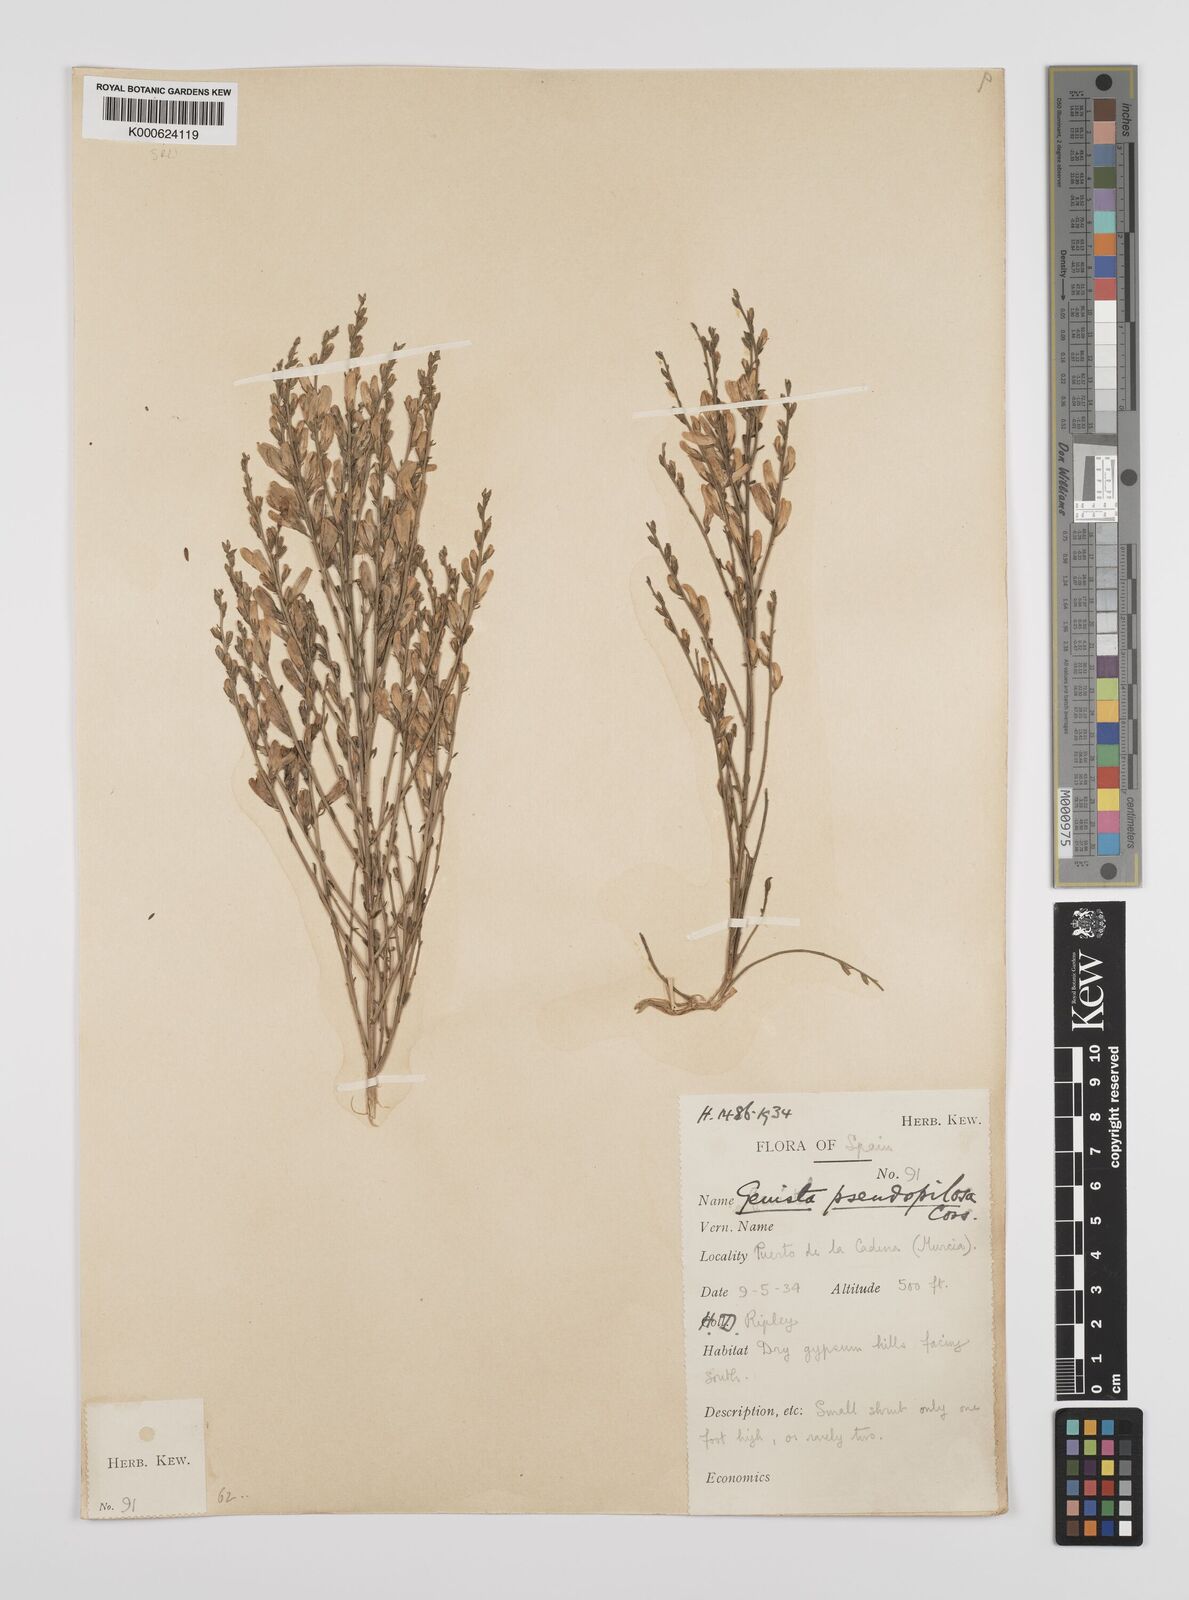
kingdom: Plantae
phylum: Tracheophyta
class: Magnoliopsida
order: Fabales
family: Fabaceae
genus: Genista
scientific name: Genista pseudopilosa
